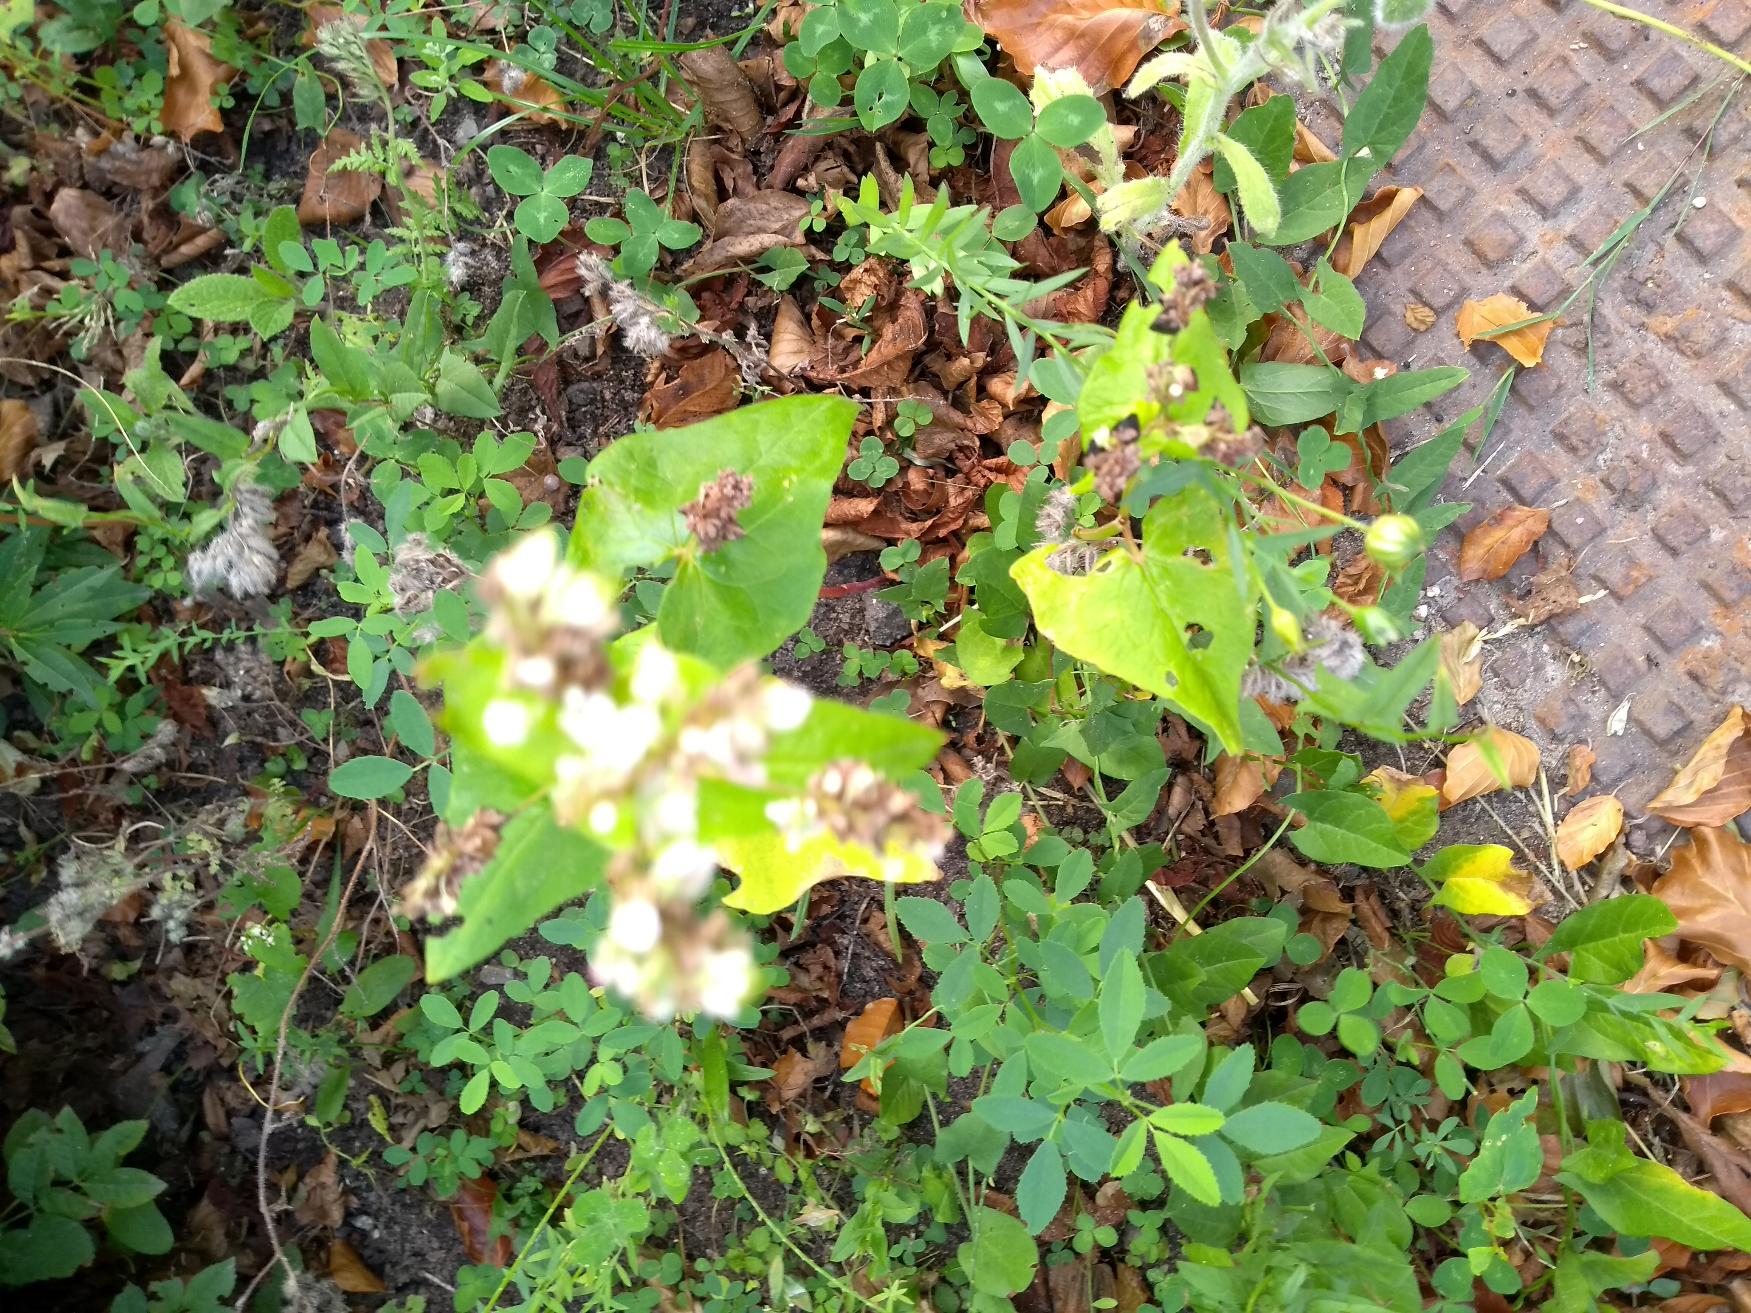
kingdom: Plantae
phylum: Tracheophyta
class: Magnoliopsida
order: Caryophyllales
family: Polygonaceae
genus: Fagopyrum
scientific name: Fagopyrum esculentum
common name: Almindelig boghvede
